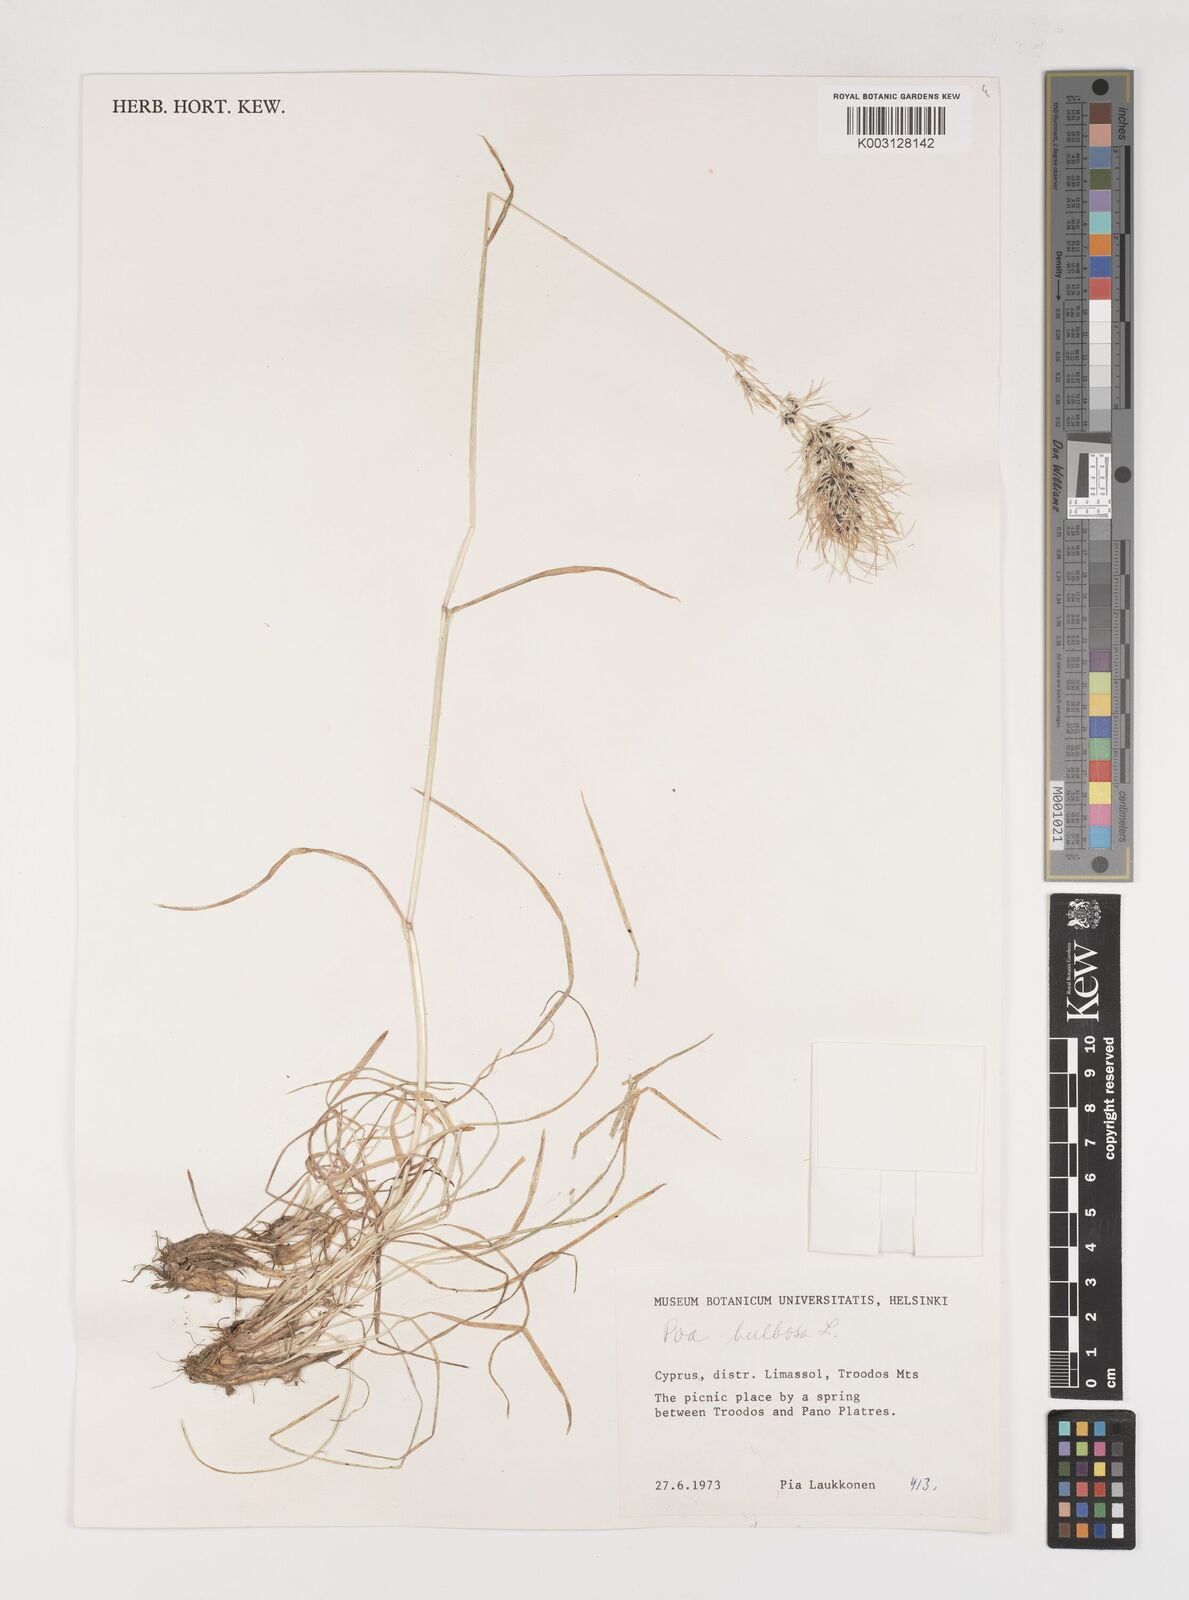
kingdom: Plantae
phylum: Tracheophyta
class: Liliopsida
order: Poales
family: Poaceae
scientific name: Poaceae
